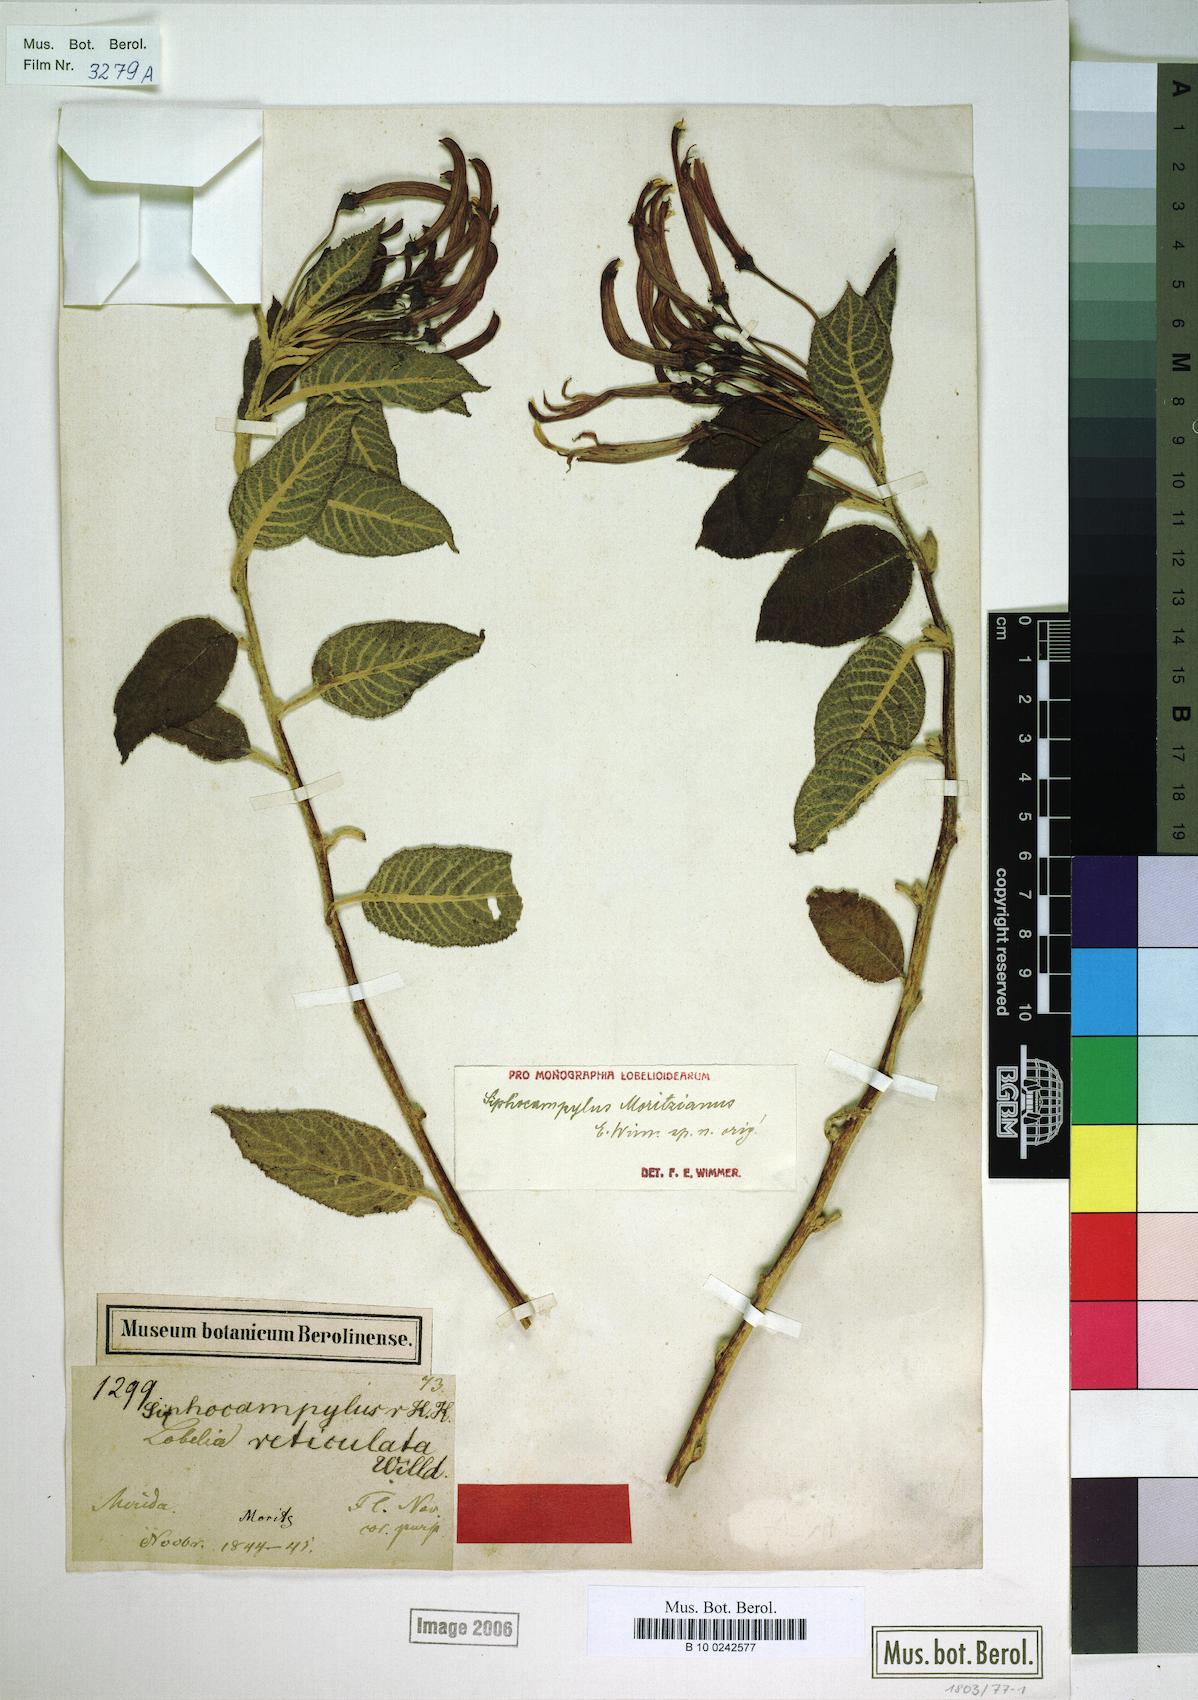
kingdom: Plantae
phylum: Tracheophyta
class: Magnoliopsida
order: Asterales
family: Campanulaceae
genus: Siphocampylus
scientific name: Siphocampylus moritzianus
